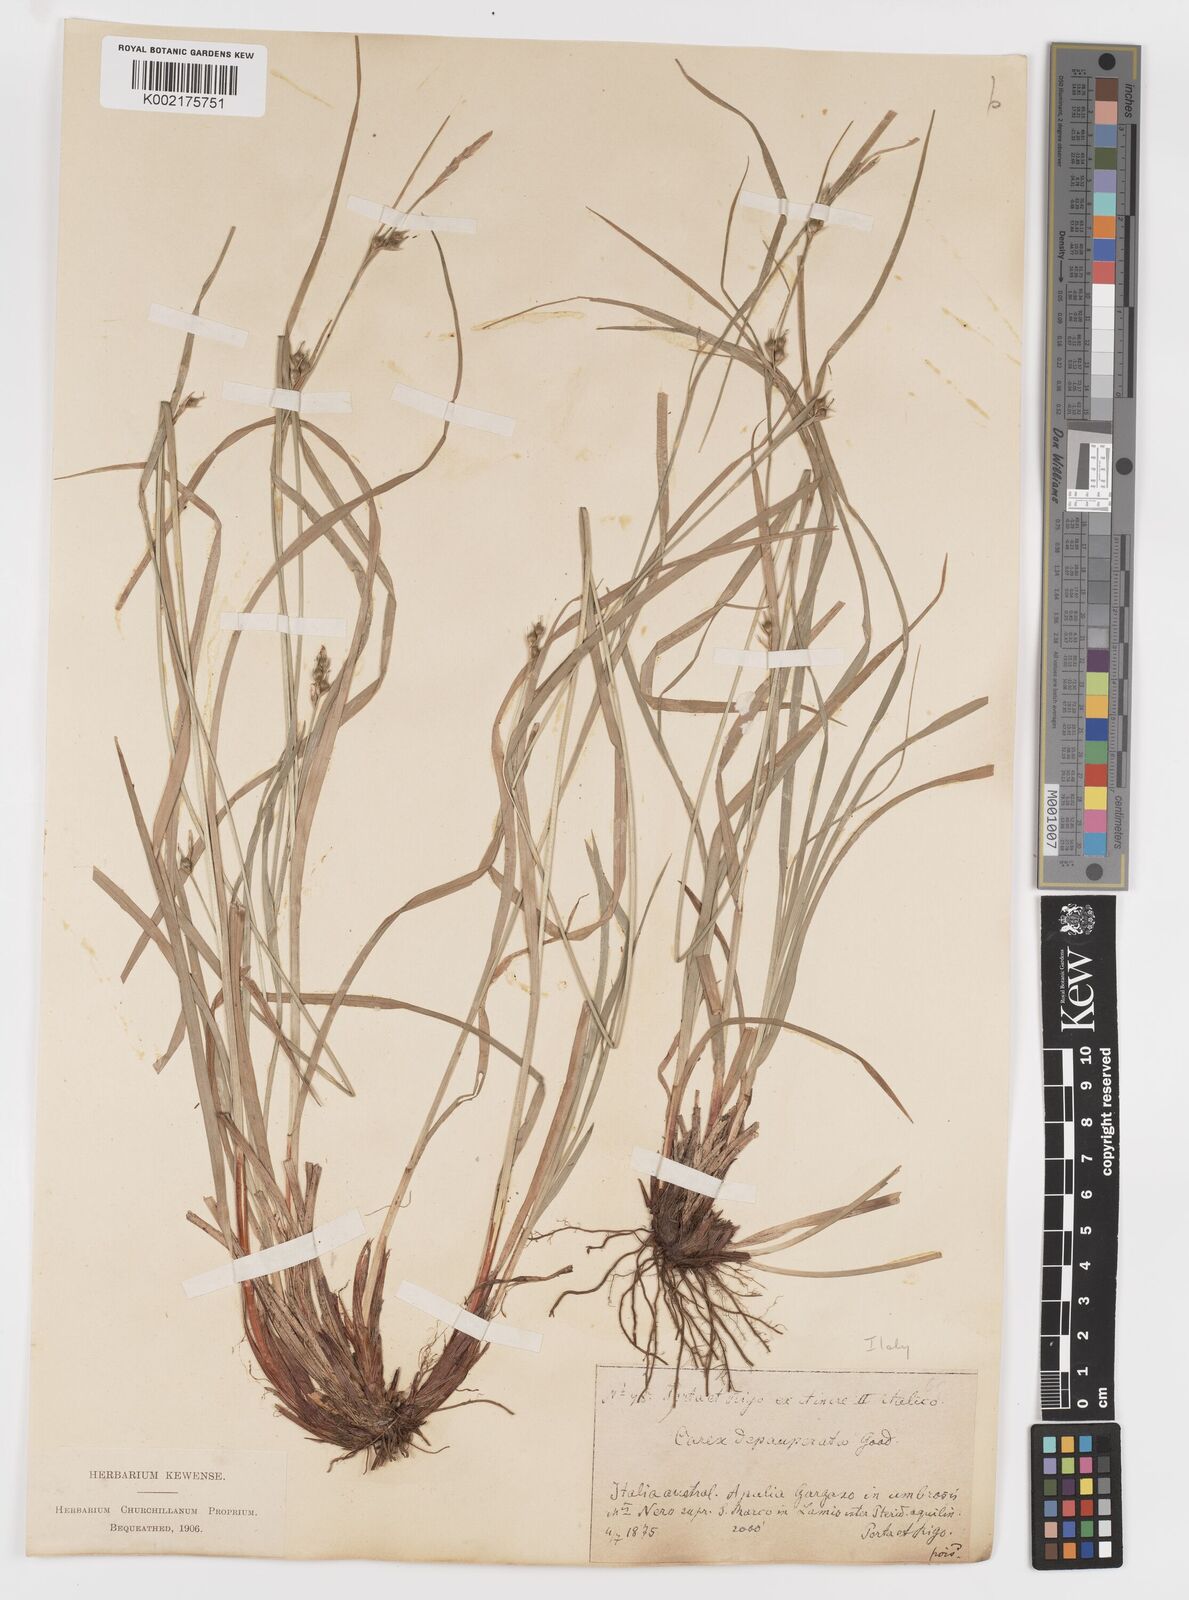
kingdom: Plantae
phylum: Tracheophyta
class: Liliopsida
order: Poales
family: Cyperaceae
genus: Carex
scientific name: Carex
